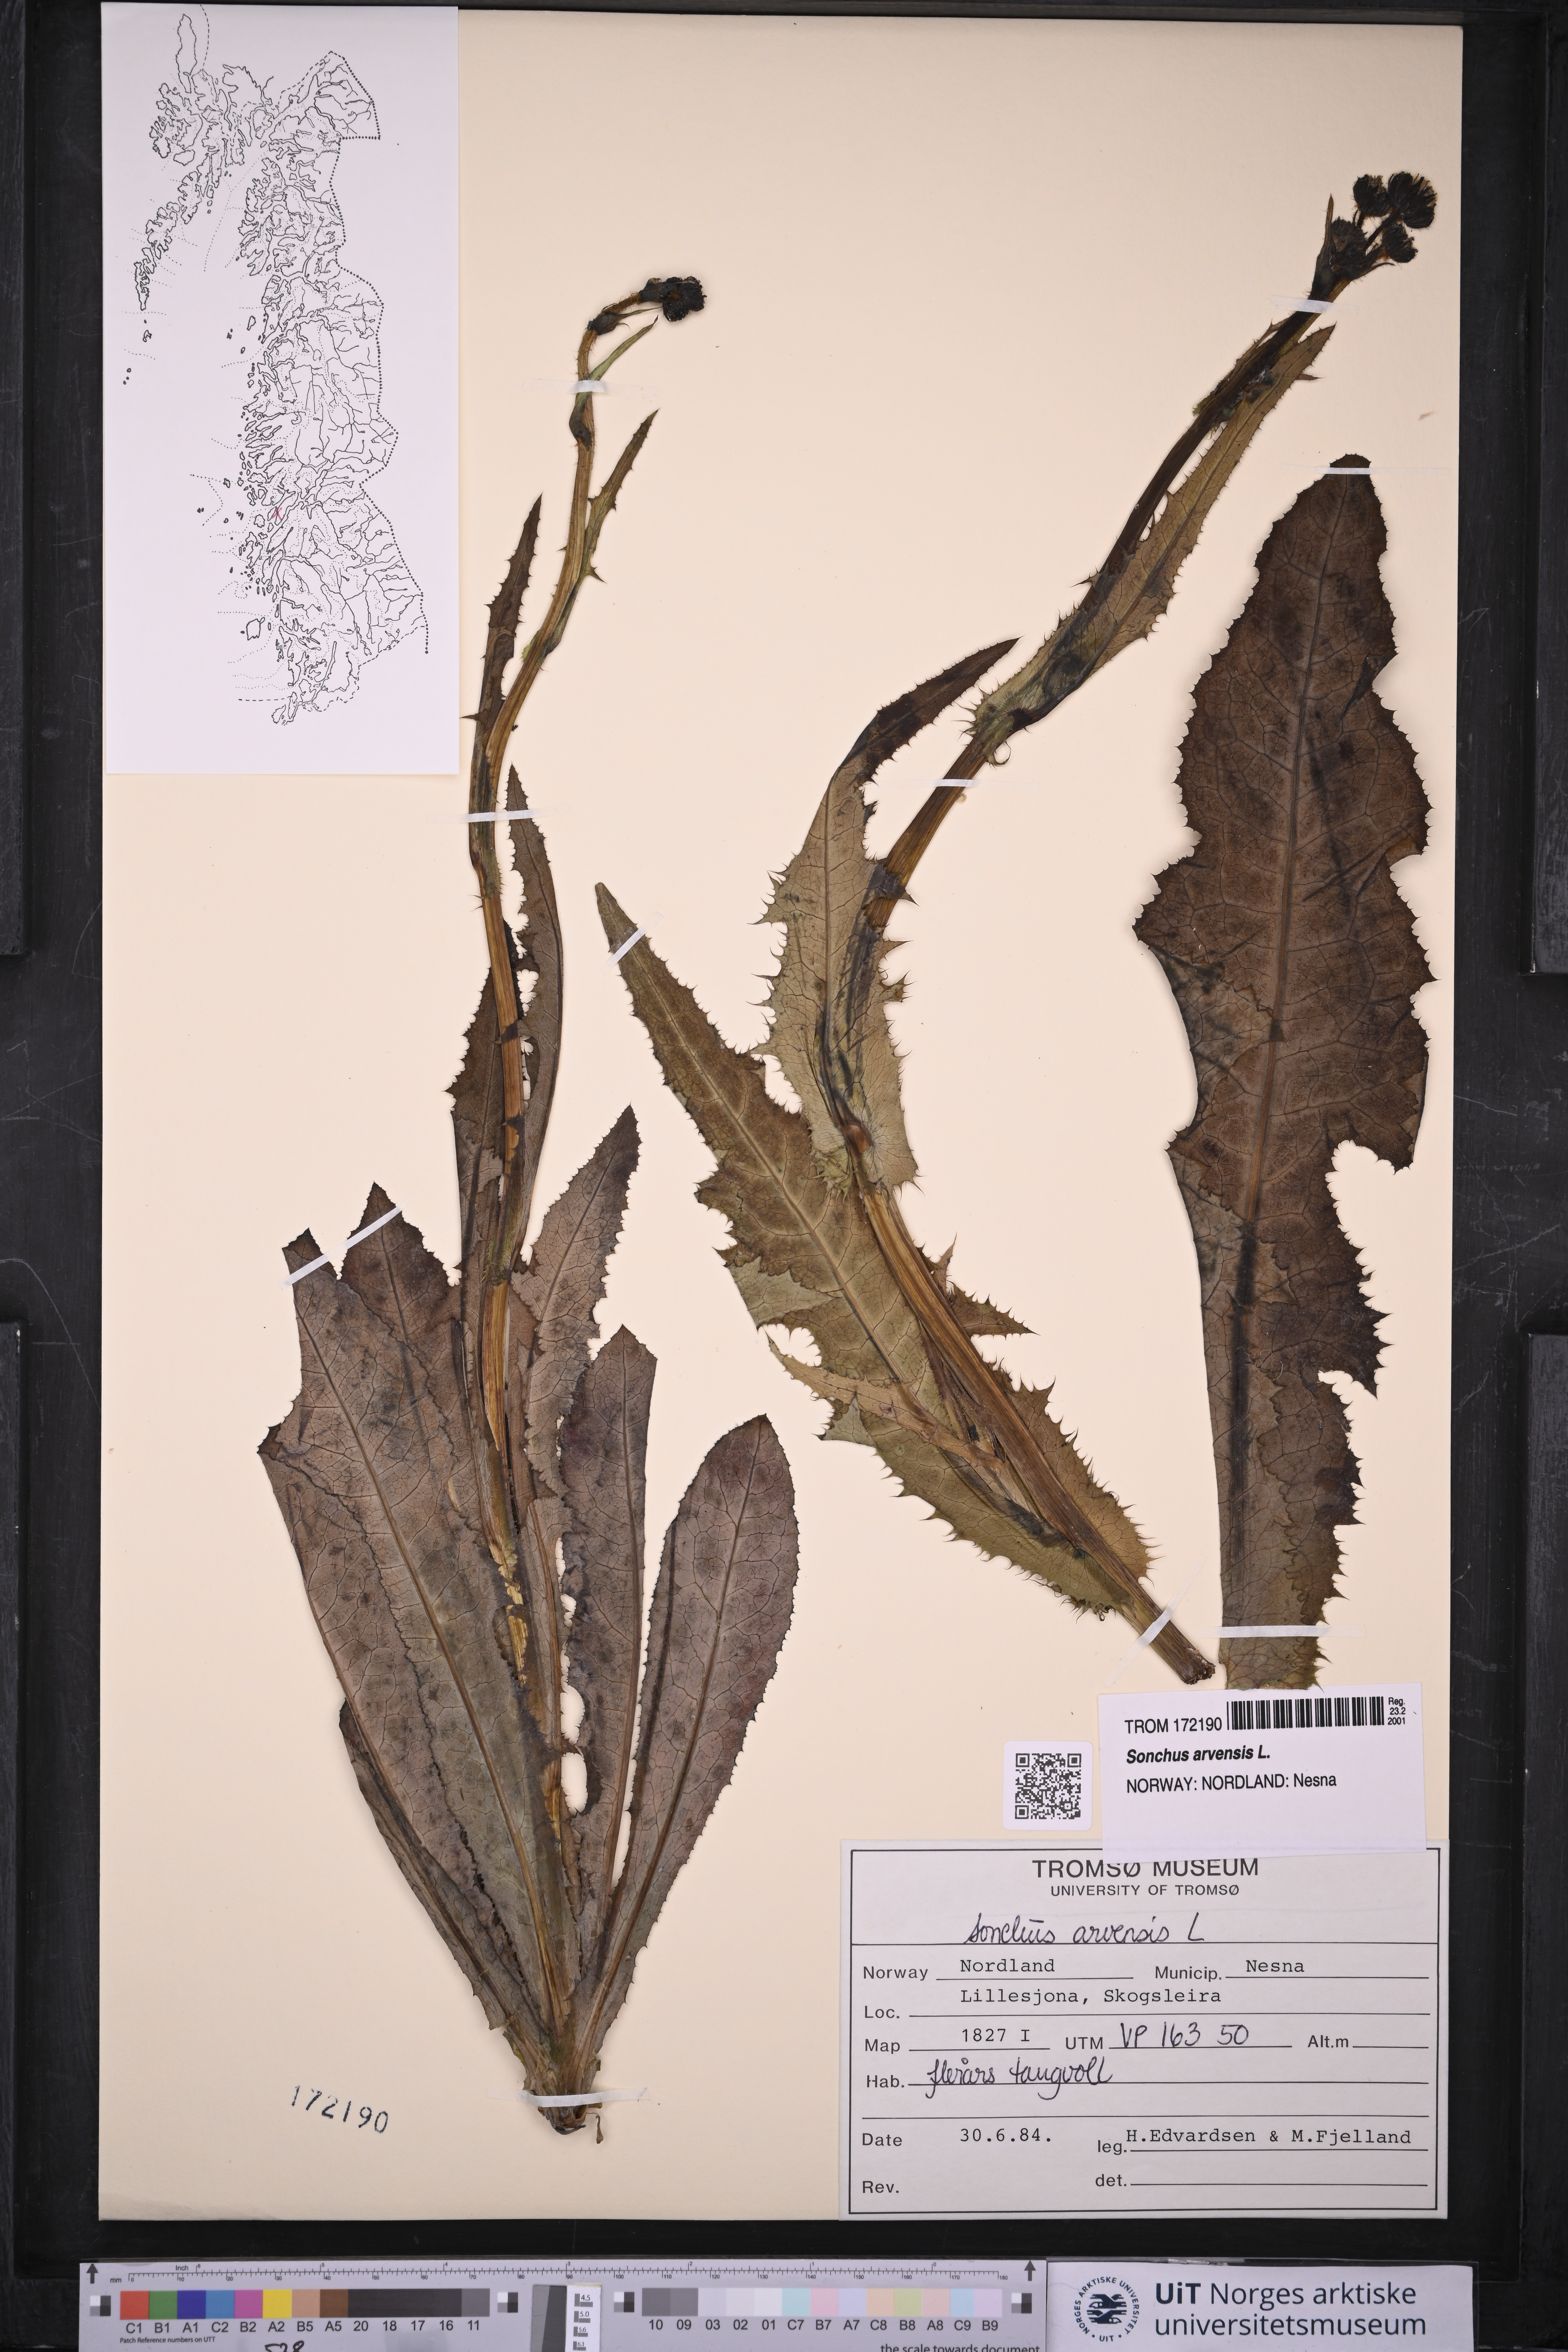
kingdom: Plantae
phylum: Tracheophyta
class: Magnoliopsida
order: Asterales
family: Asteraceae
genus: Sonchus
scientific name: Sonchus arvensis
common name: Perennial sow-thistle
